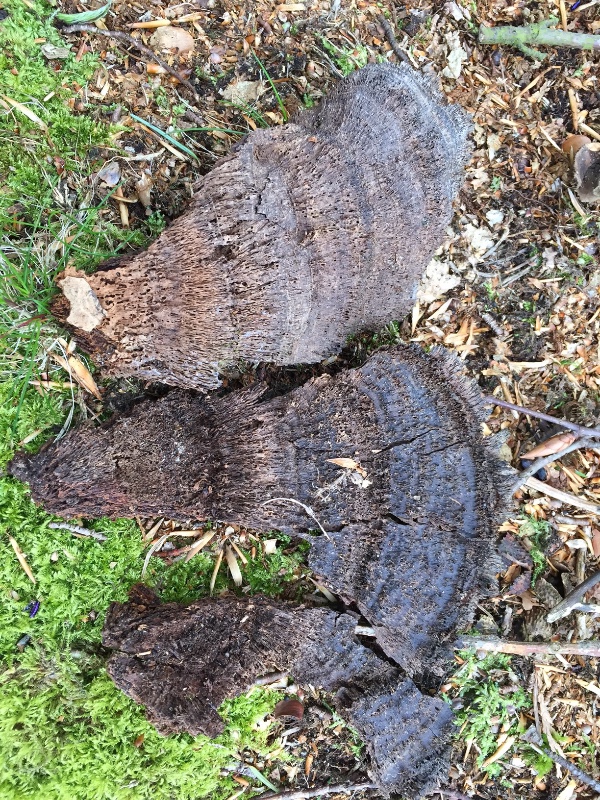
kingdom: Fungi
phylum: Basidiomycota
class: Agaricomycetes
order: Hymenochaetales
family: Hymenochaetaceae
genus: Inonotus
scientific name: Inonotus cuticularis
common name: kroghåret spejlporesvamp
